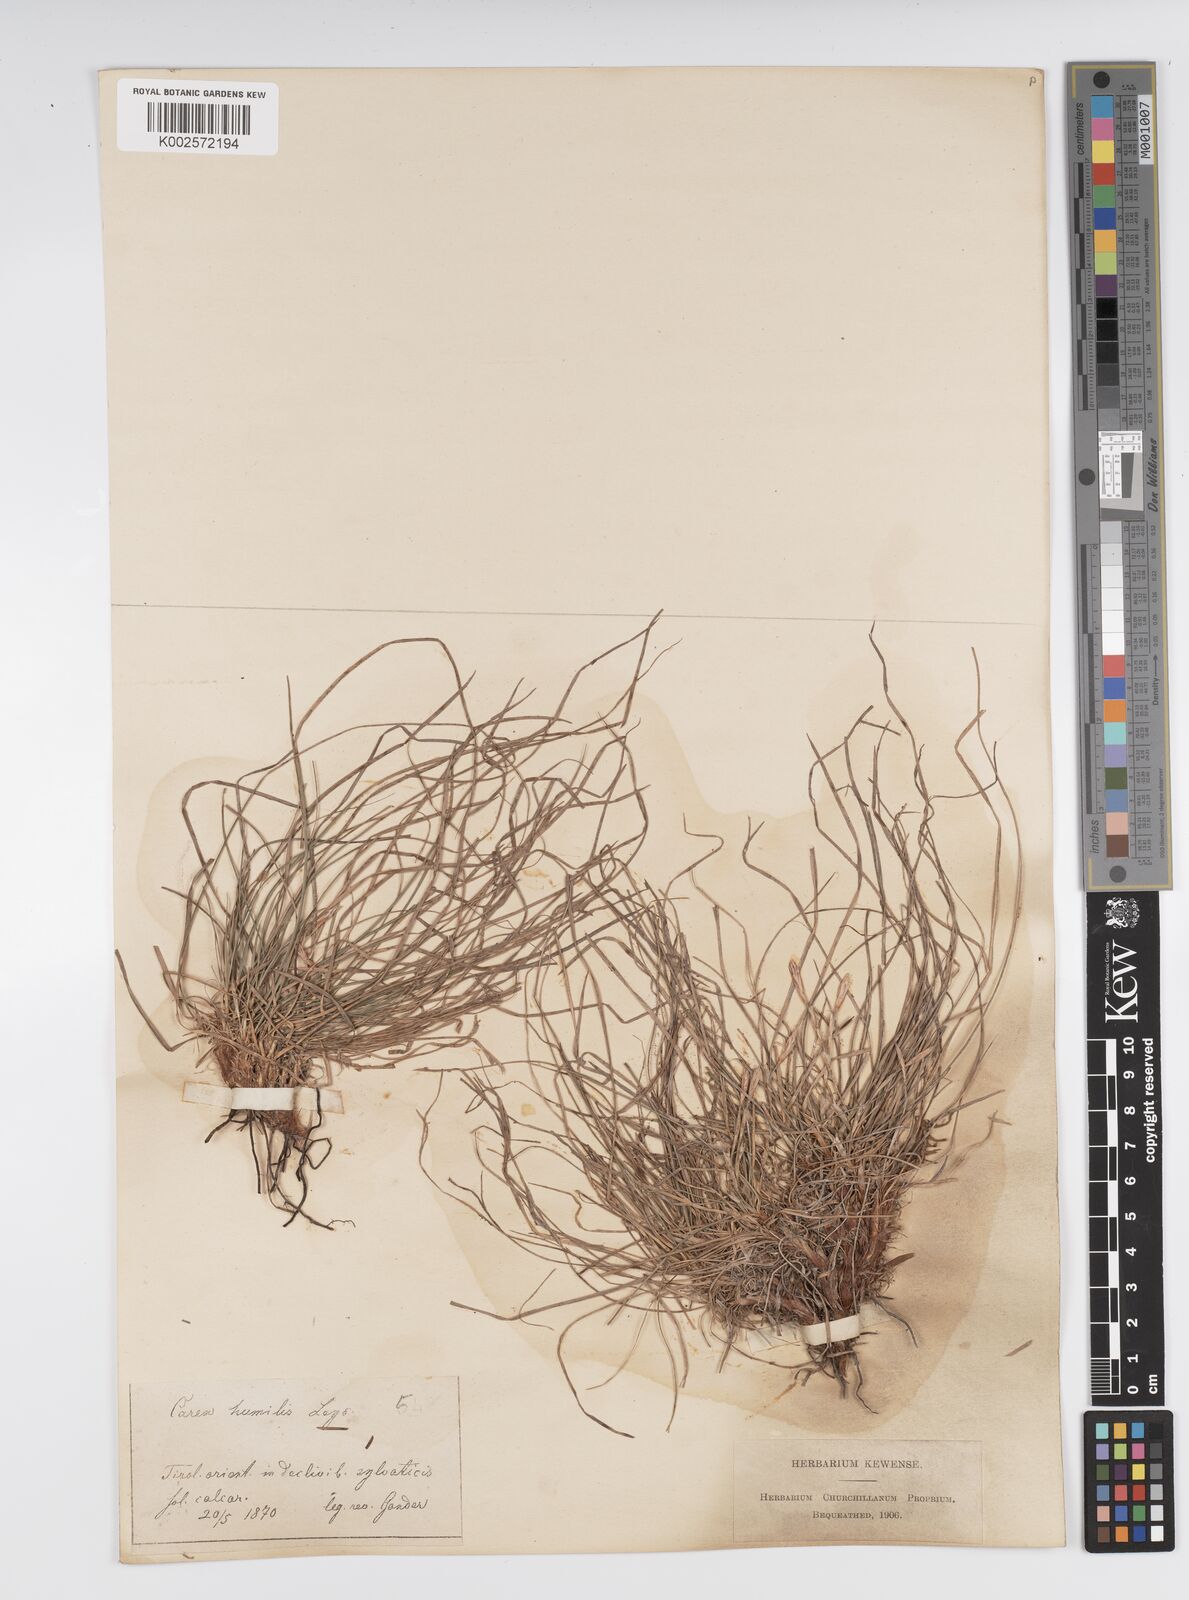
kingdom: Plantae
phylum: Tracheophyta
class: Liliopsida
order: Poales
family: Cyperaceae
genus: Carex
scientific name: Carex humilis
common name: Dwarf sedge
